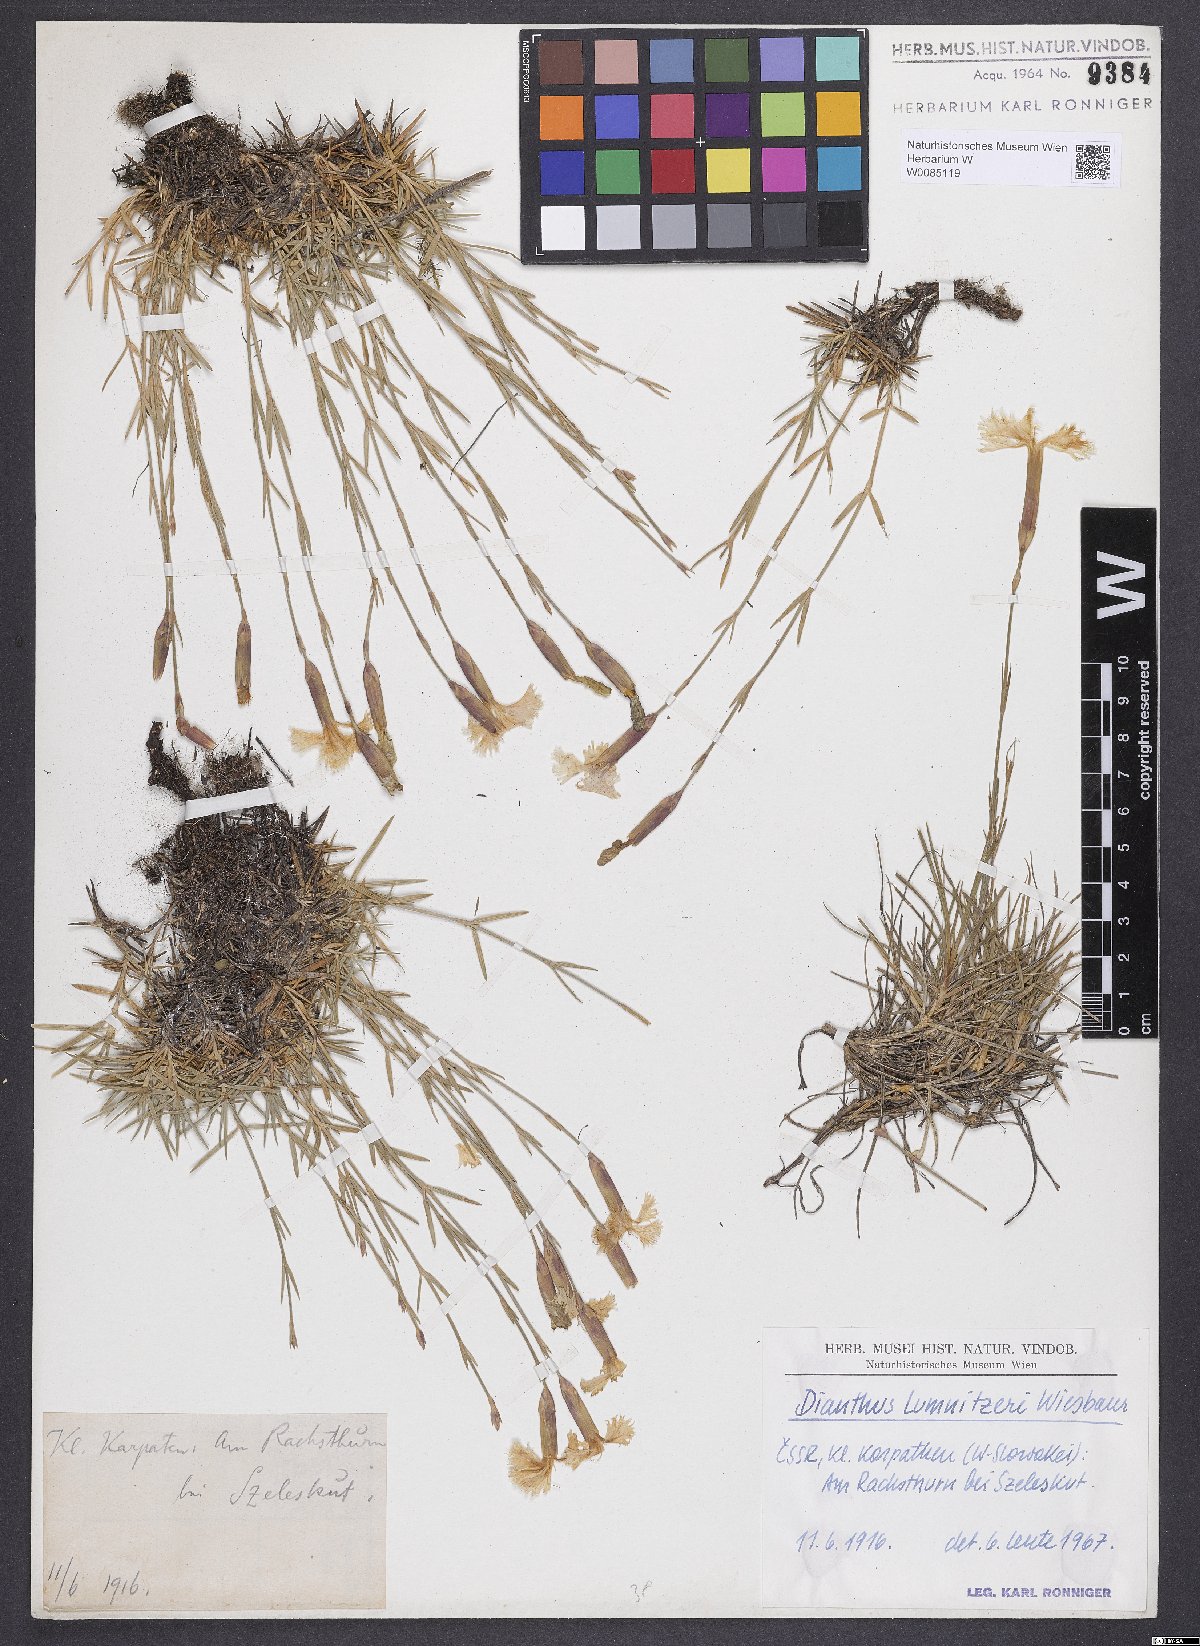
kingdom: Plantae
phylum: Tracheophyta
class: Magnoliopsida
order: Caryophyllales
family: Caryophyllaceae
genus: Dianthus
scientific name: Dianthus praecox
